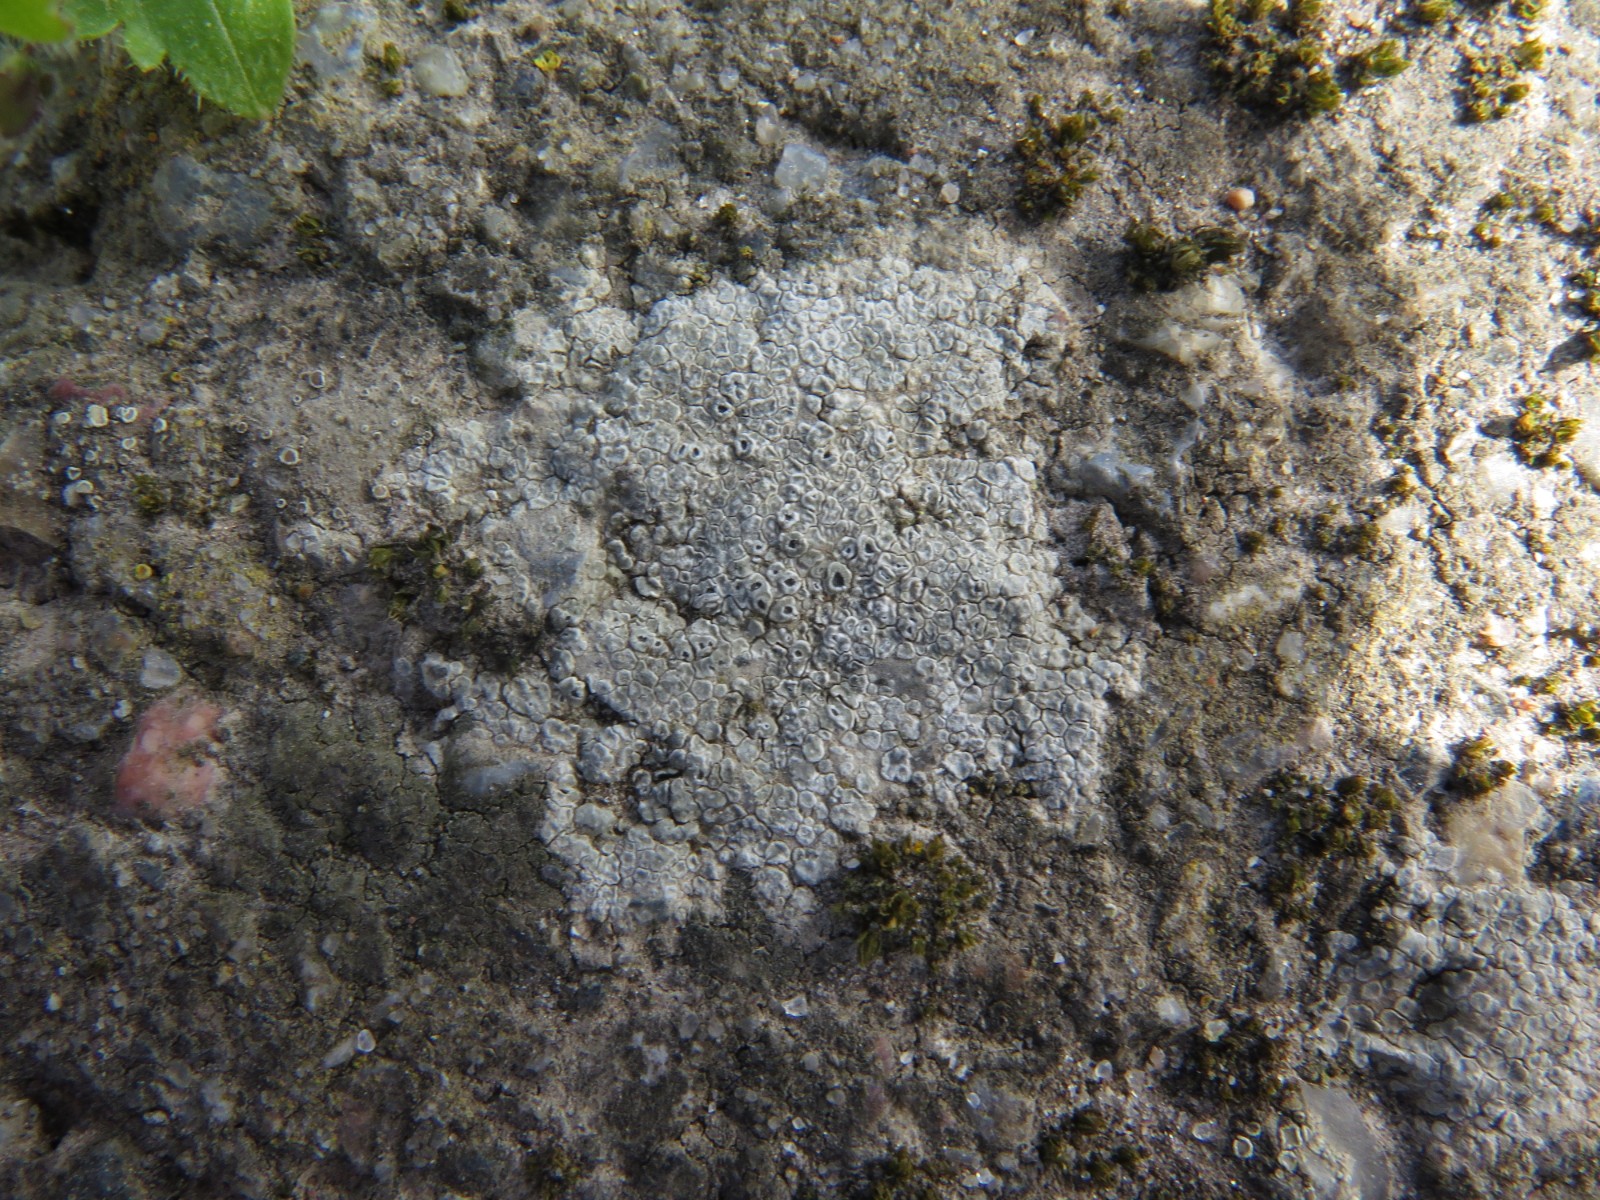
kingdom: Fungi
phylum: Ascomycota
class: Lecanoromycetes
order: Pertusariales
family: Megasporaceae
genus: Circinaria
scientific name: Circinaria contorta
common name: indviklet hulskivelav
